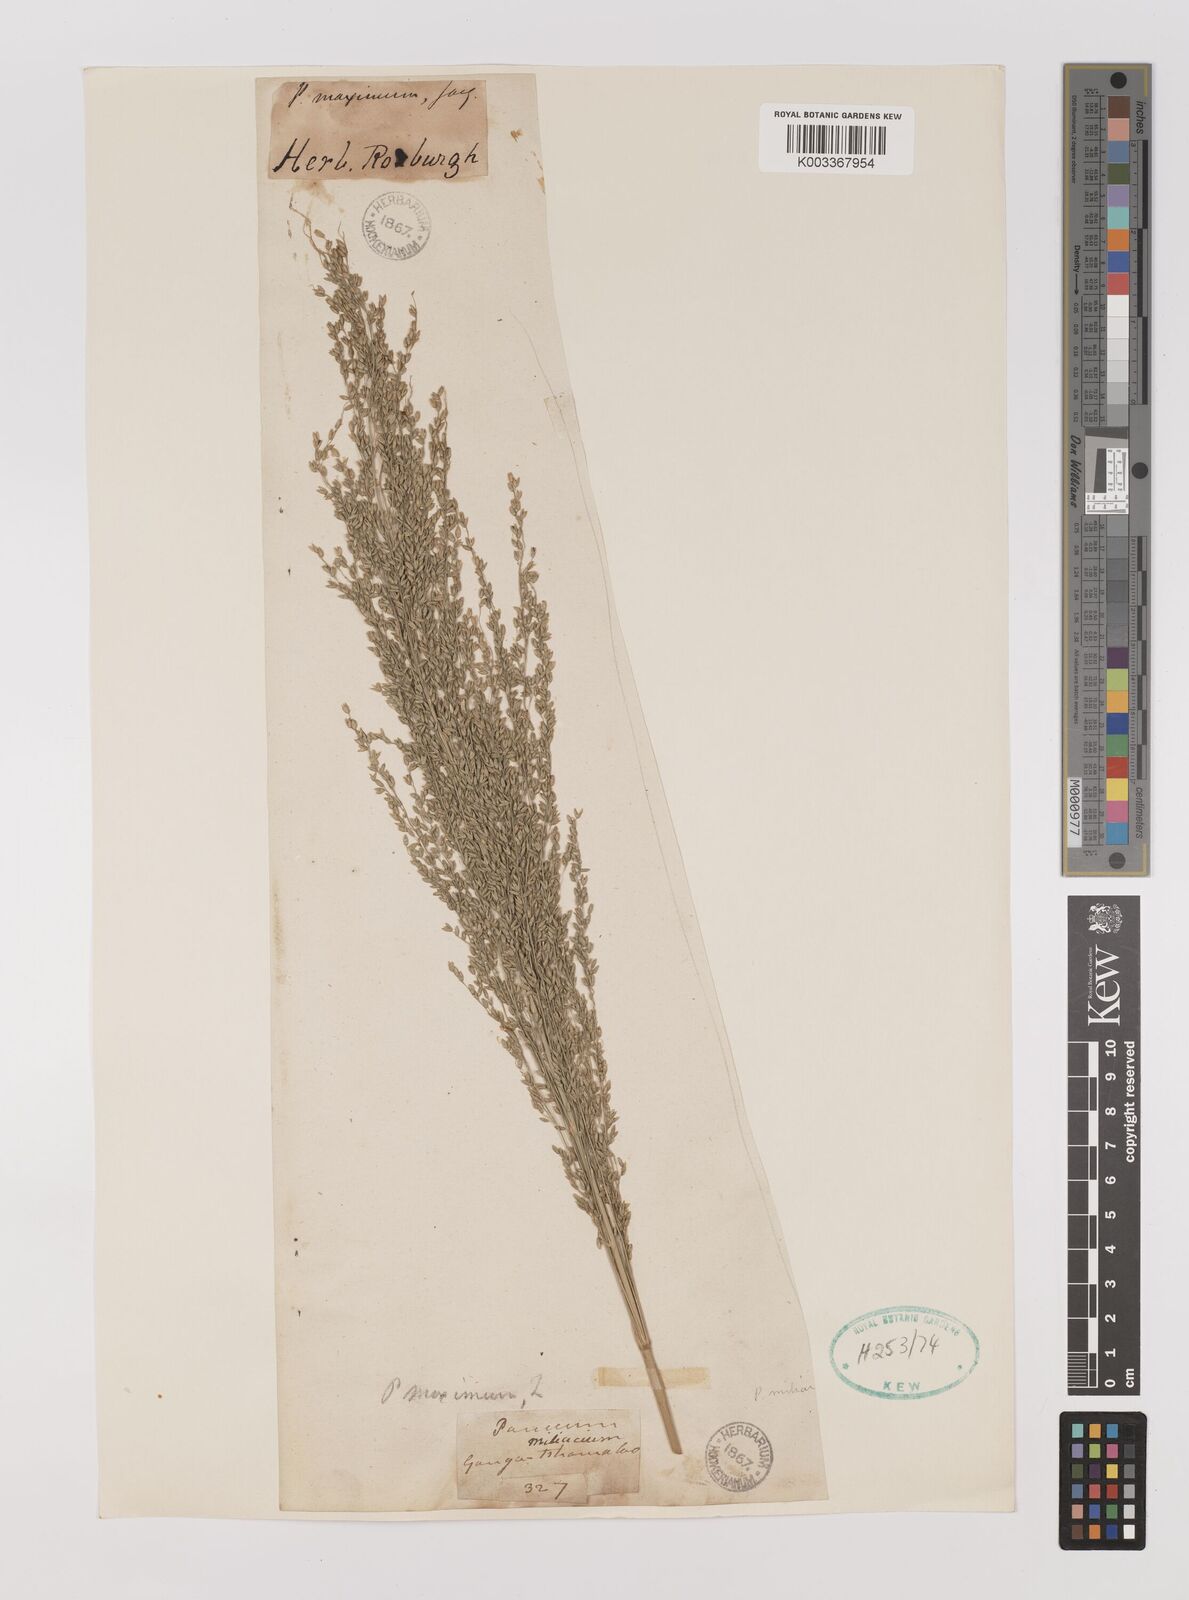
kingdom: Plantae
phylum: Tracheophyta
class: Liliopsida
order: Poales
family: Poaceae
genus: Megathyrsus
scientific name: Megathyrsus maximus
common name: Guineagrass
